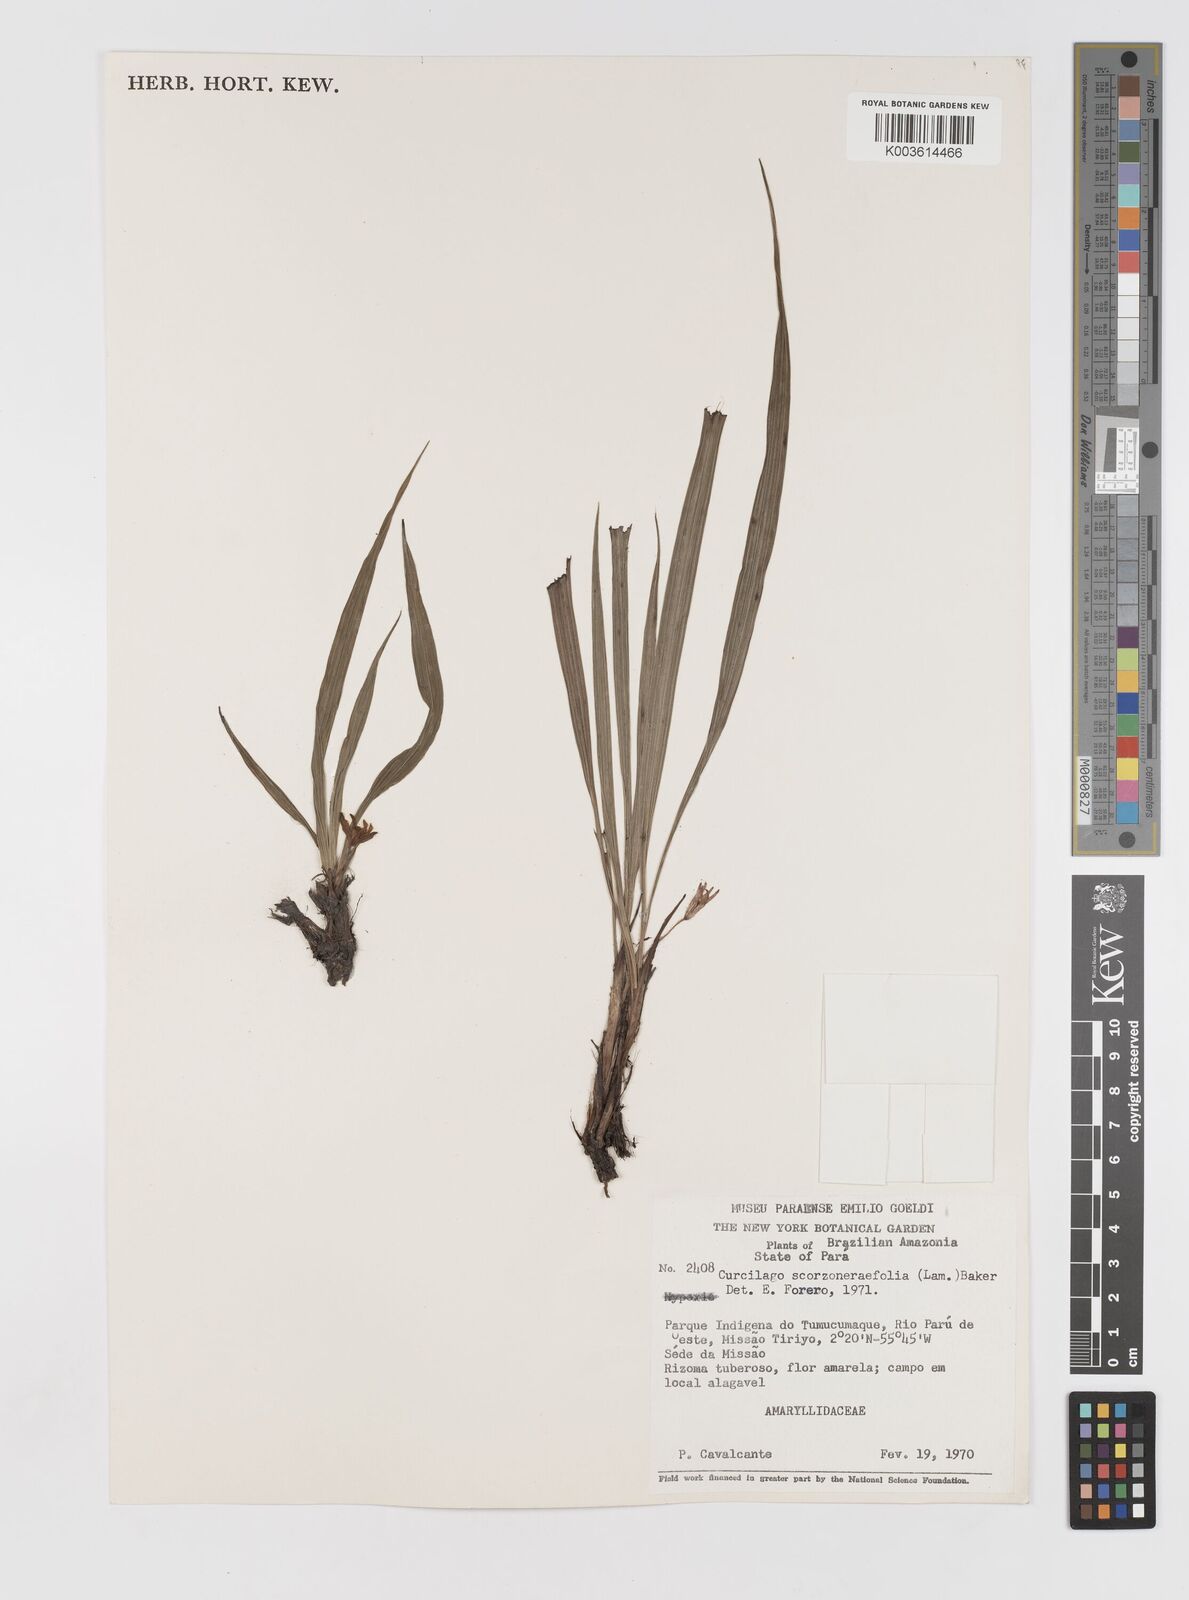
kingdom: Plantae
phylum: Tracheophyta
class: Liliopsida
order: Asparagales
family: Hypoxidaceae
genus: Curculigo
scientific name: Curculigo scorzonerifolia
